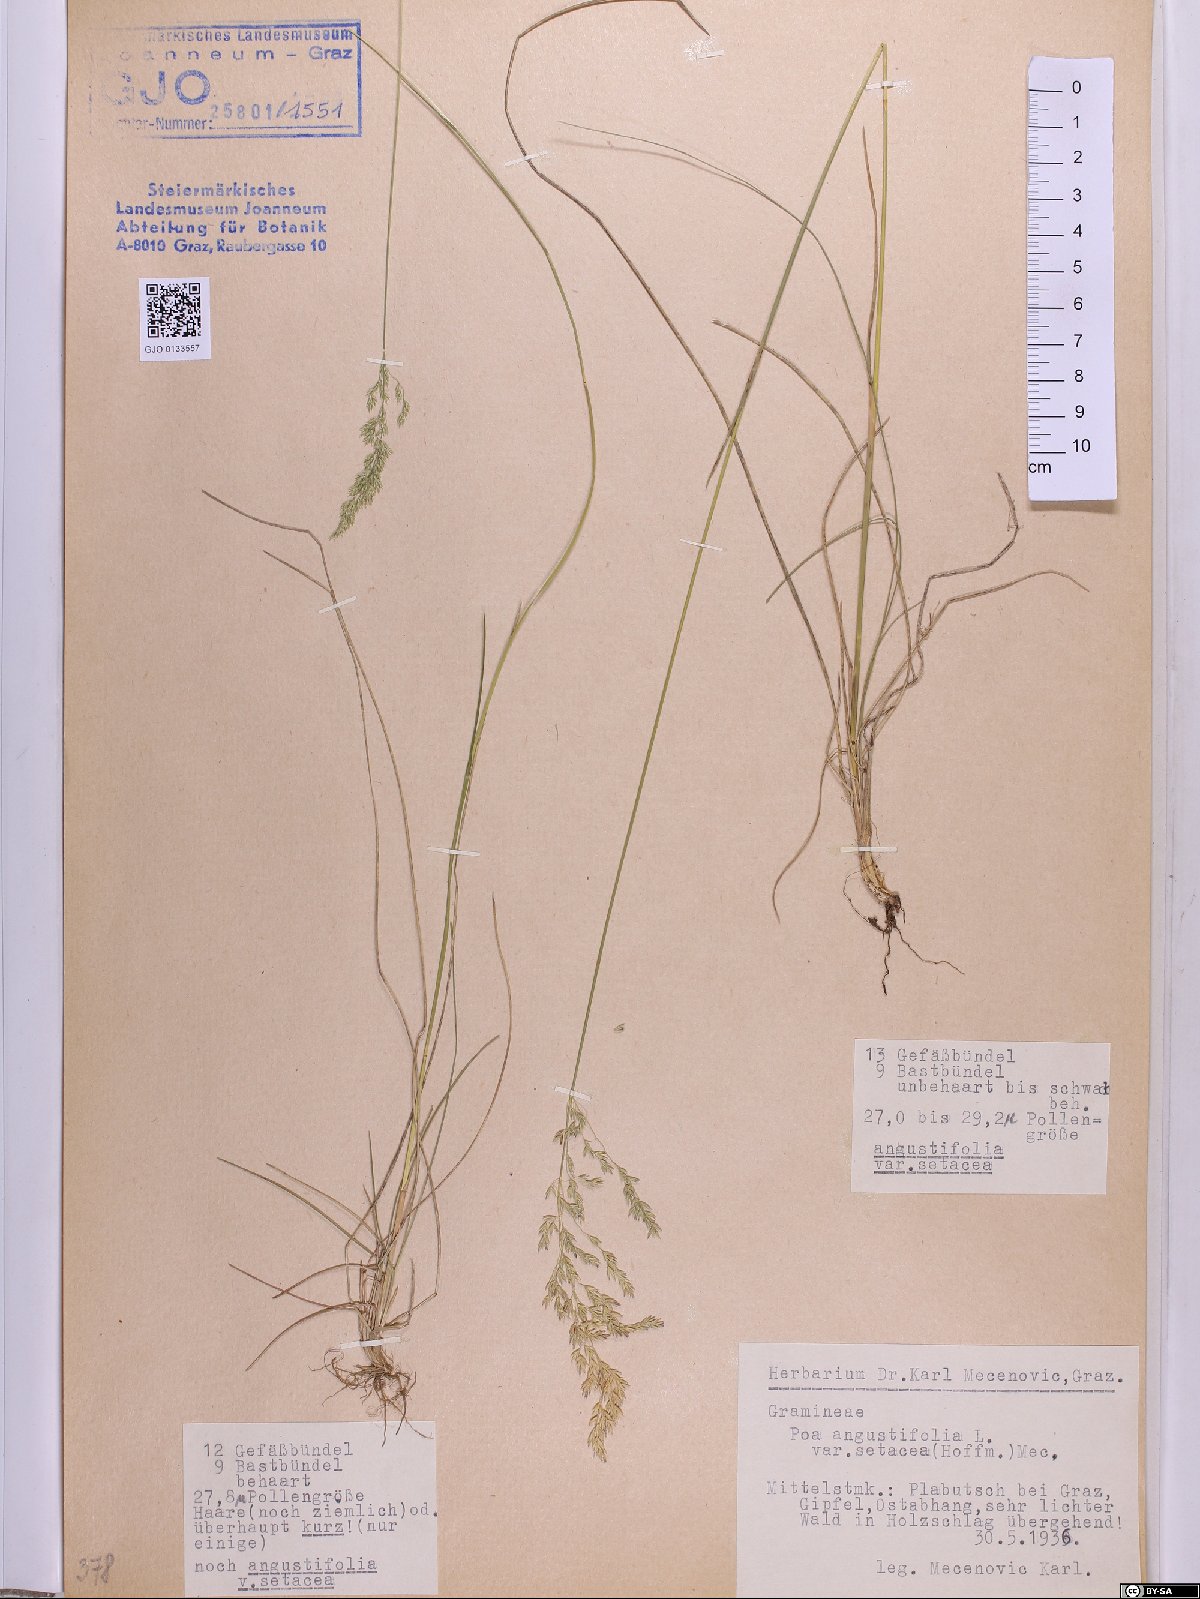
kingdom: Plantae
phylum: Tracheophyta
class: Liliopsida
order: Poales
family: Poaceae
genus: Poa
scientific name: Poa angustifolia
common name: Narrow-leaved meadow-grass
